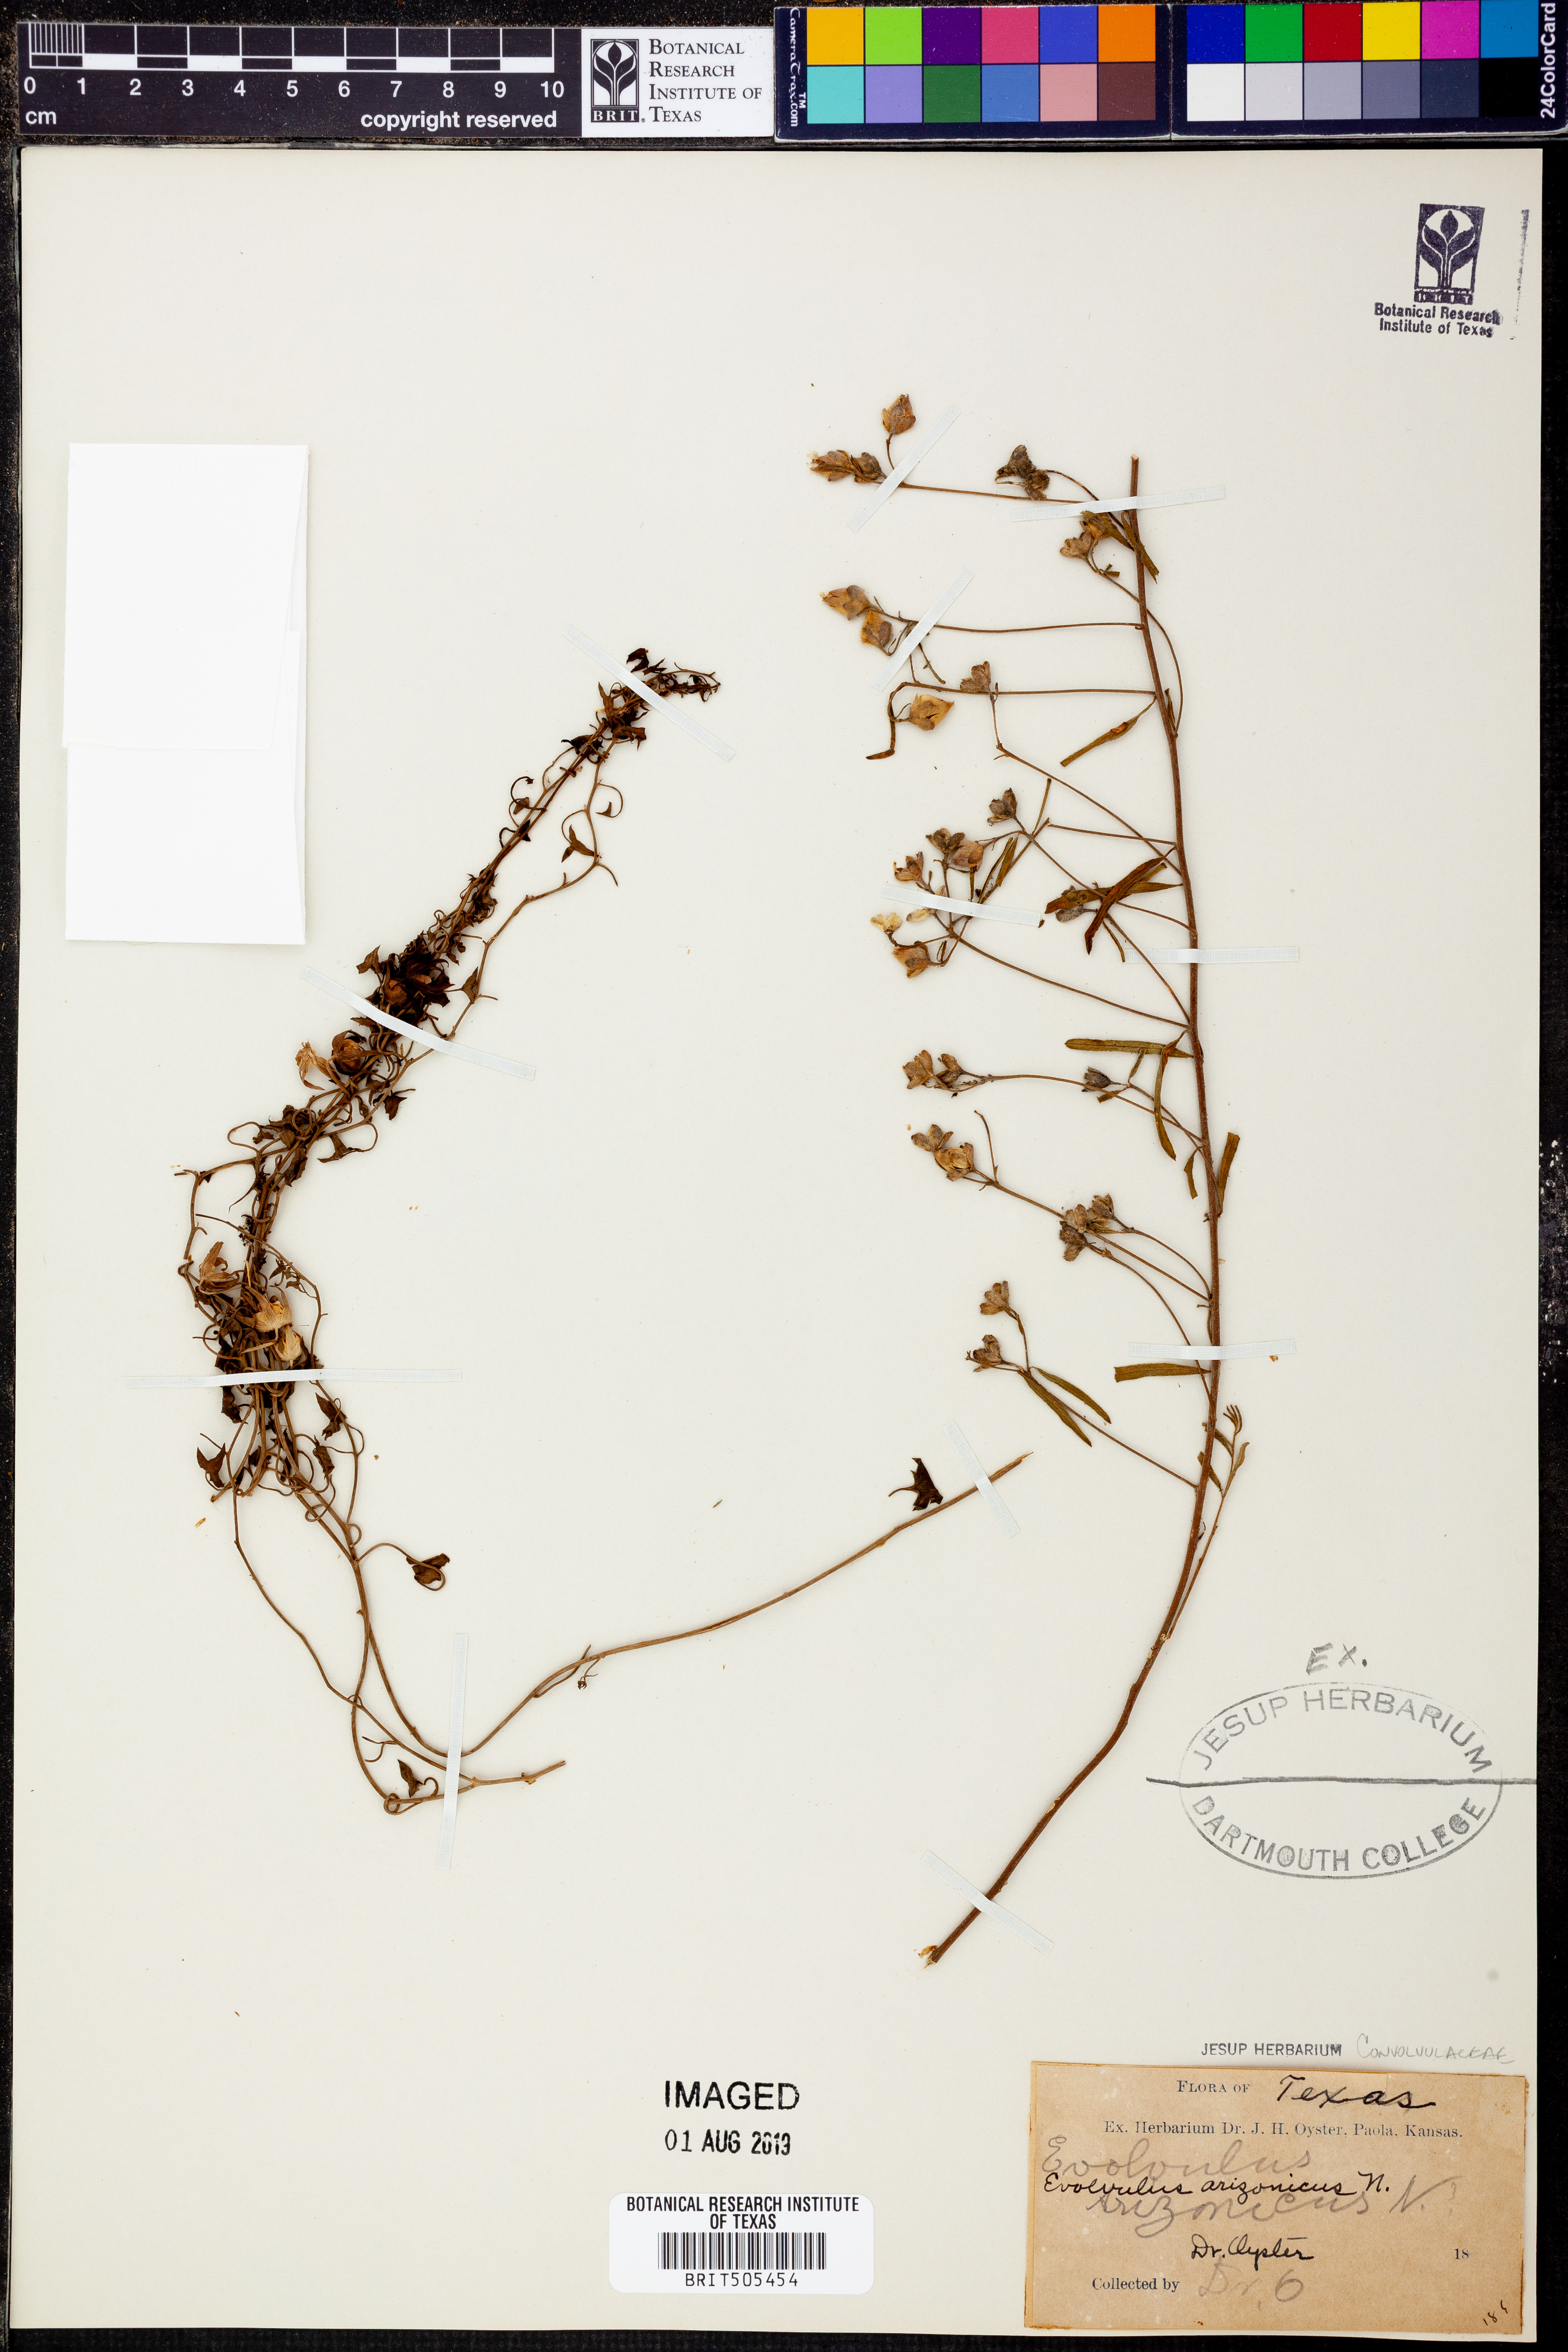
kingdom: Plantae
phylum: Tracheophyta
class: Magnoliopsida
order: Solanales
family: Convolvulaceae
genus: Evolvulus
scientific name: Evolvulus arizonicus
